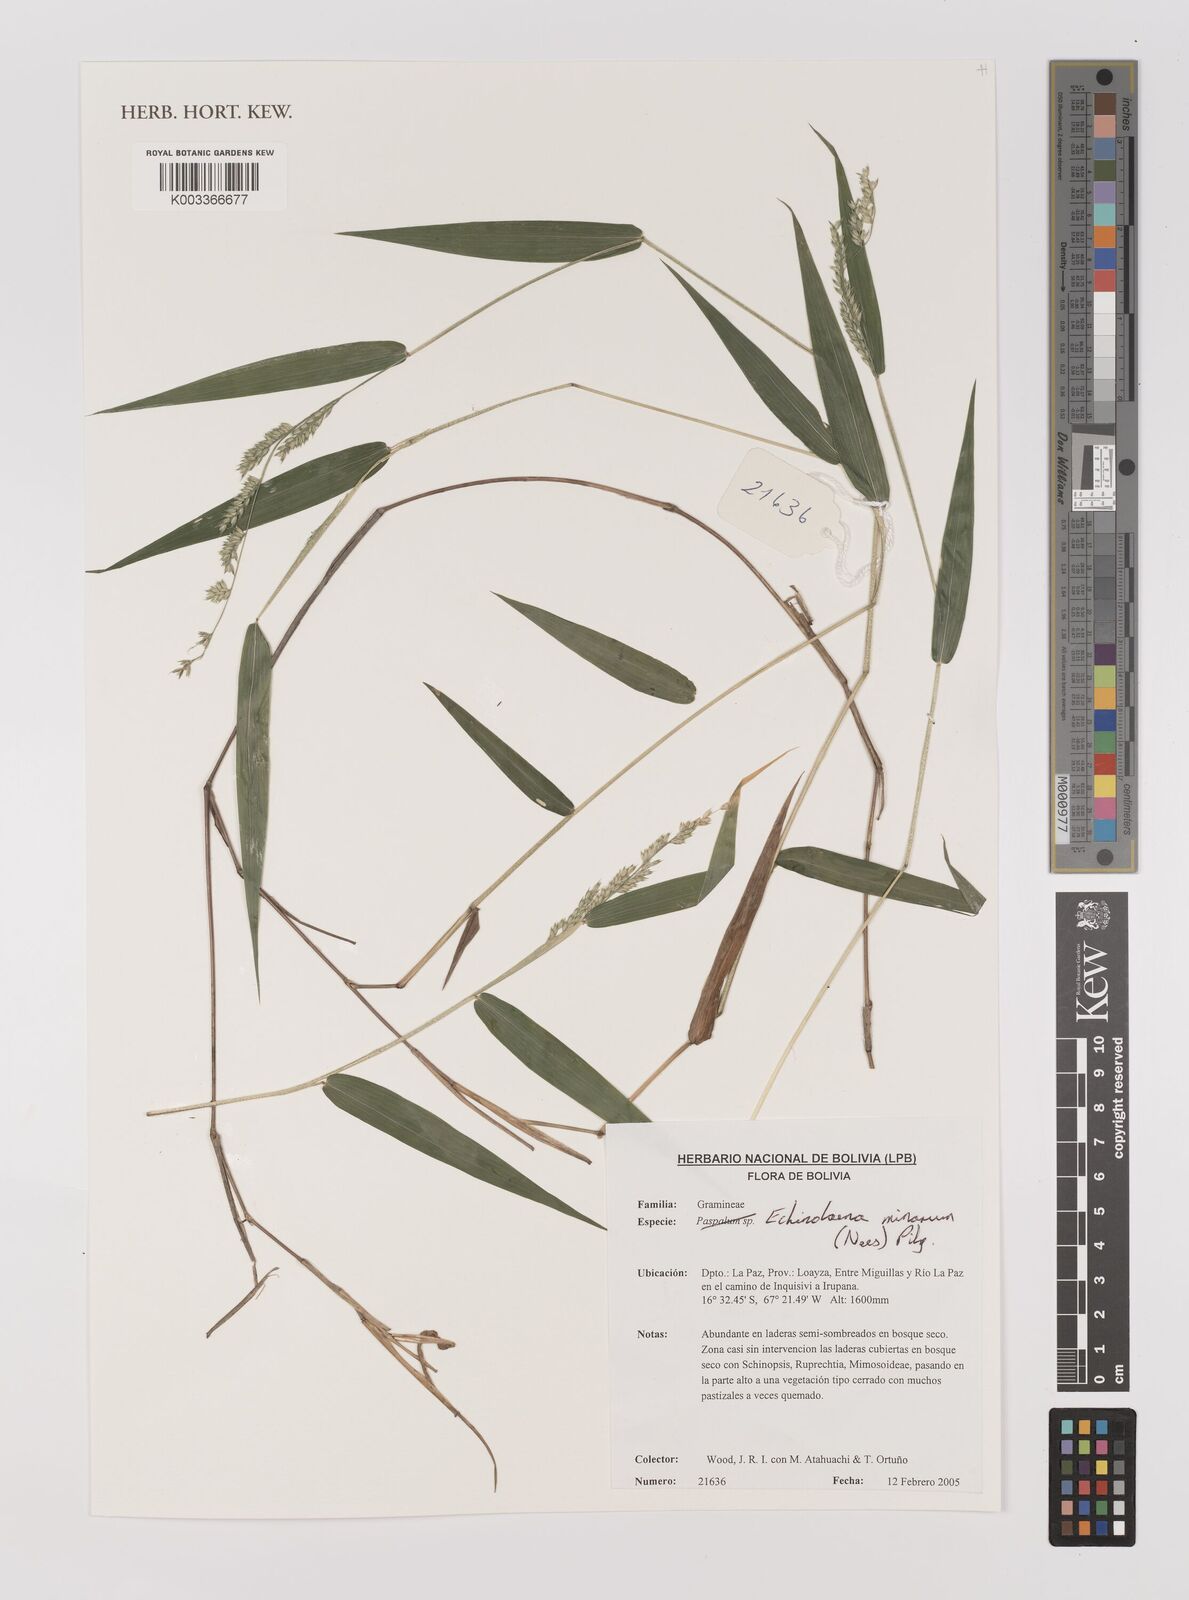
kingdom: Plantae
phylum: Tracheophyta
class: Liliopsida
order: Poales
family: Poaceae
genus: Oedochloa
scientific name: Oedochloa minarum
